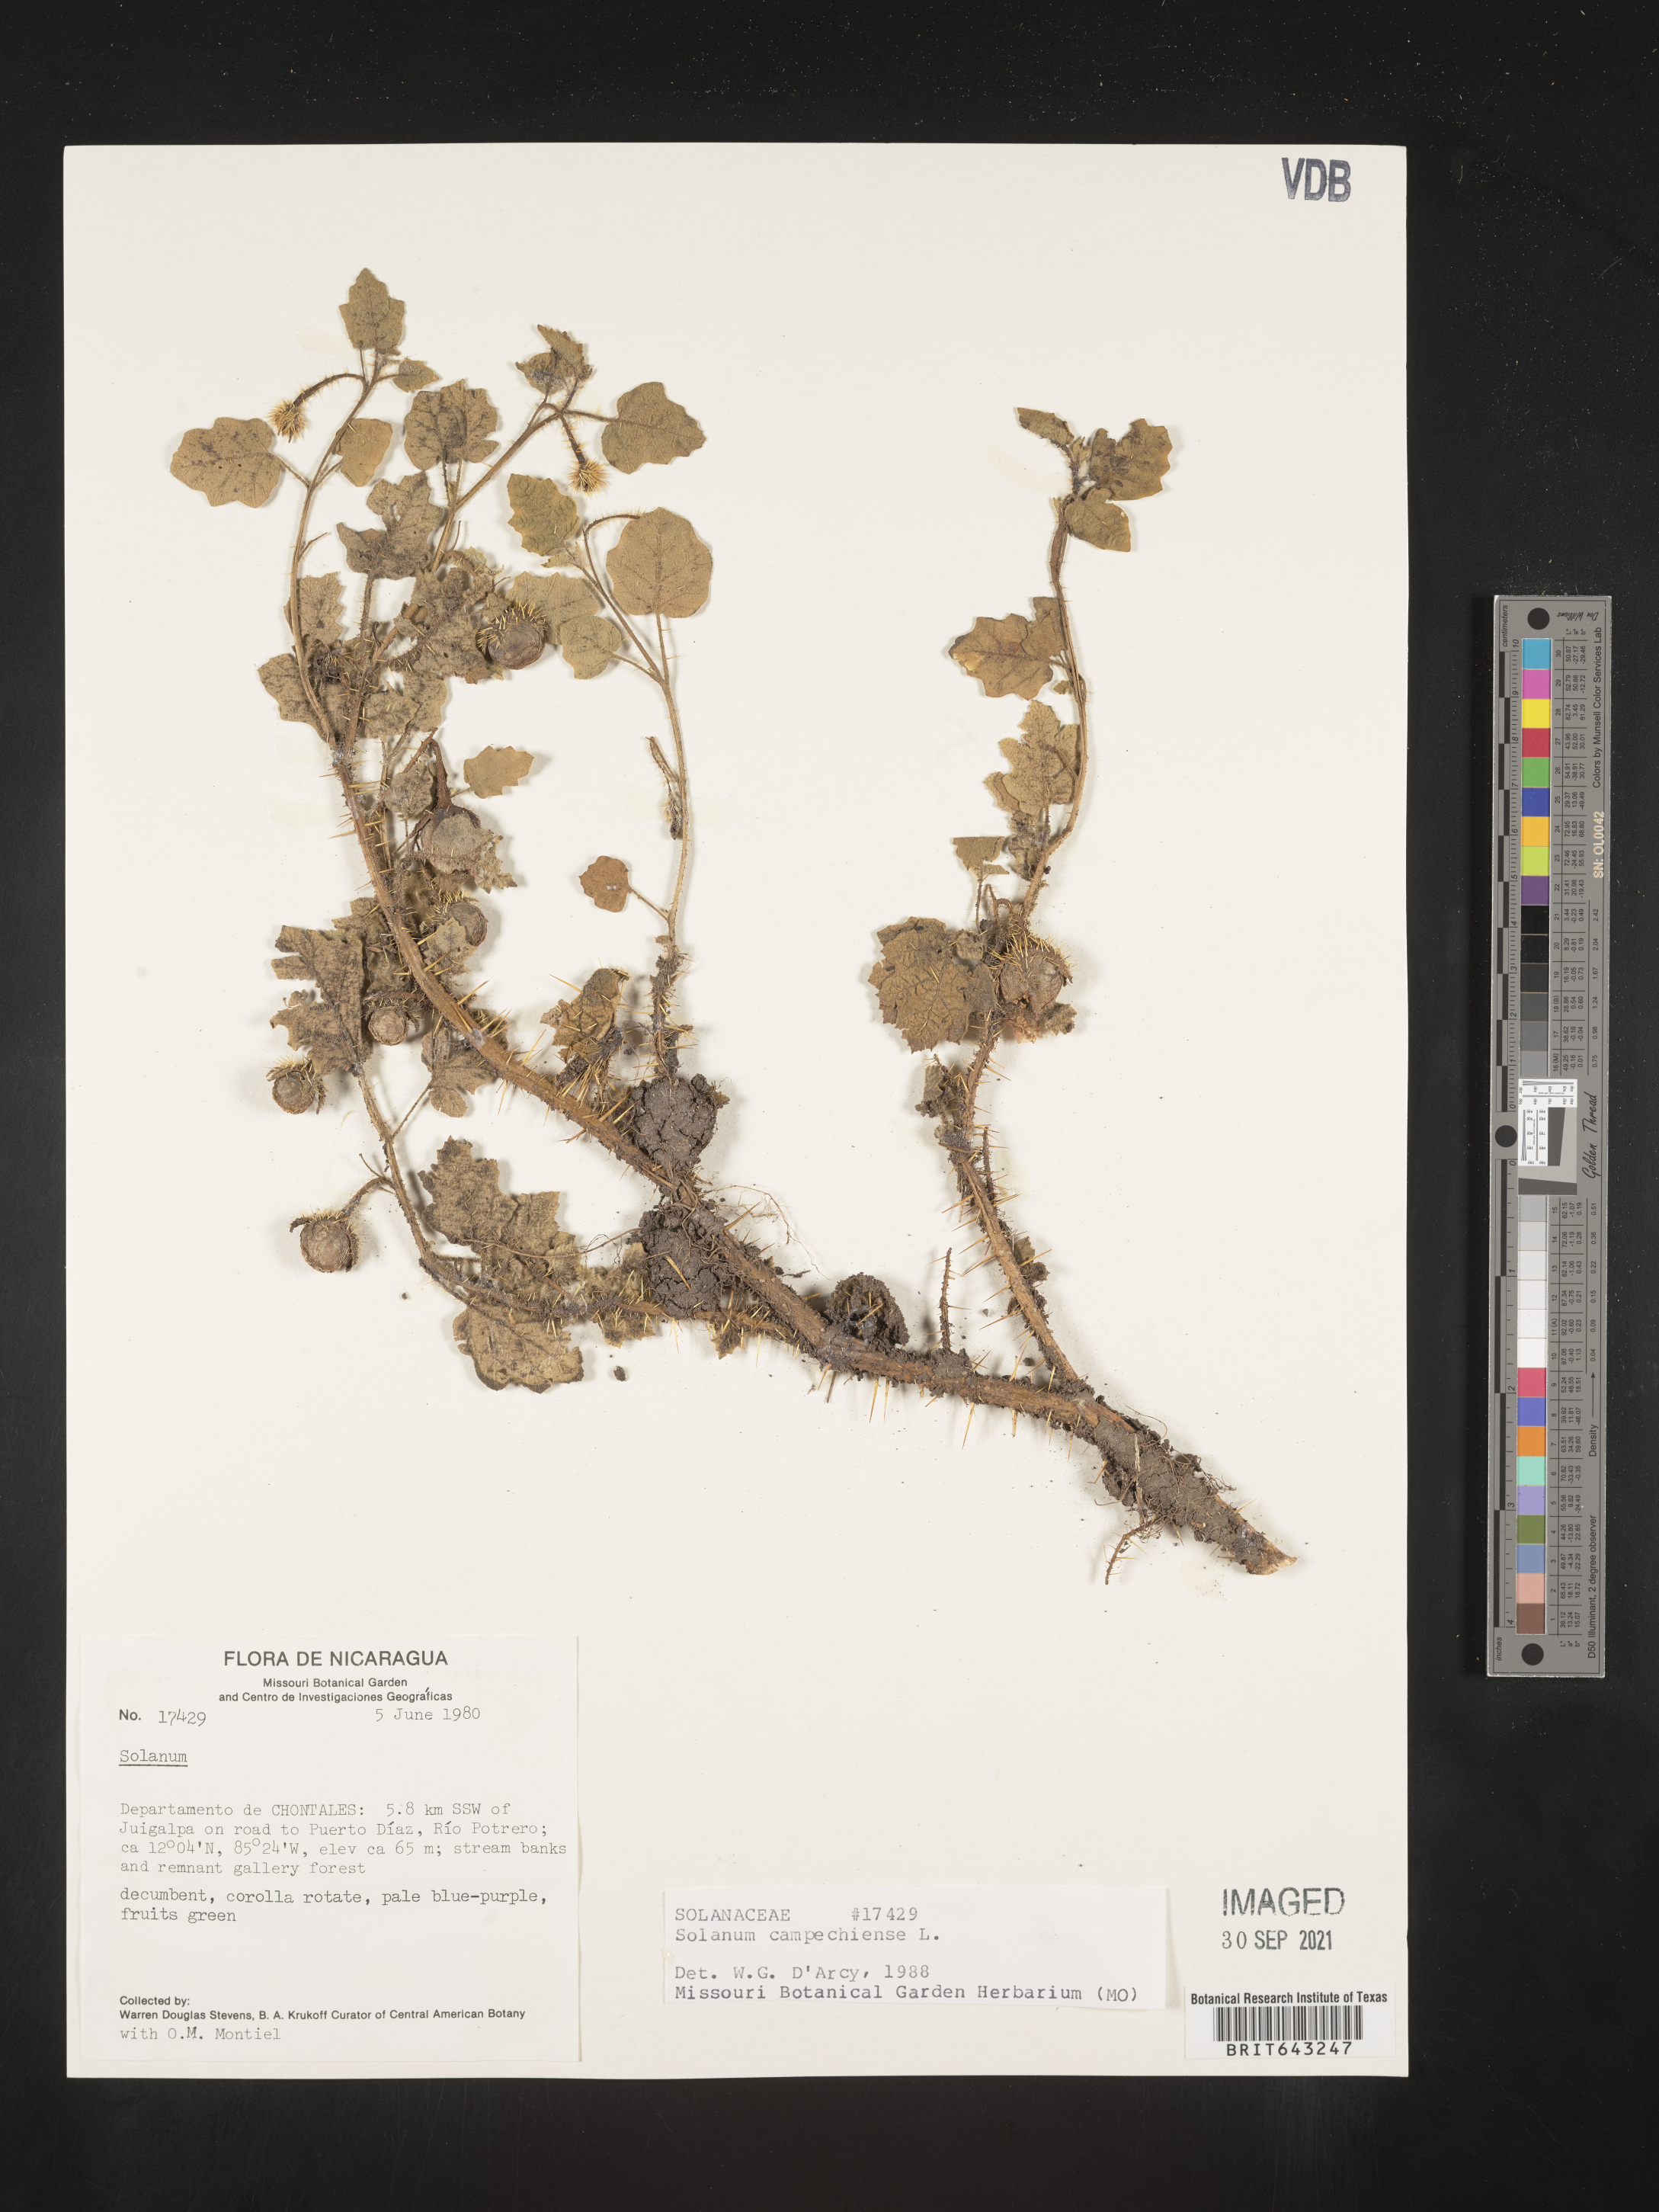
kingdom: Plantae
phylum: Tracheophyta
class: Magnoliopsida
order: Solanales
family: Solanaceae
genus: Solanum
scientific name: Solanum
